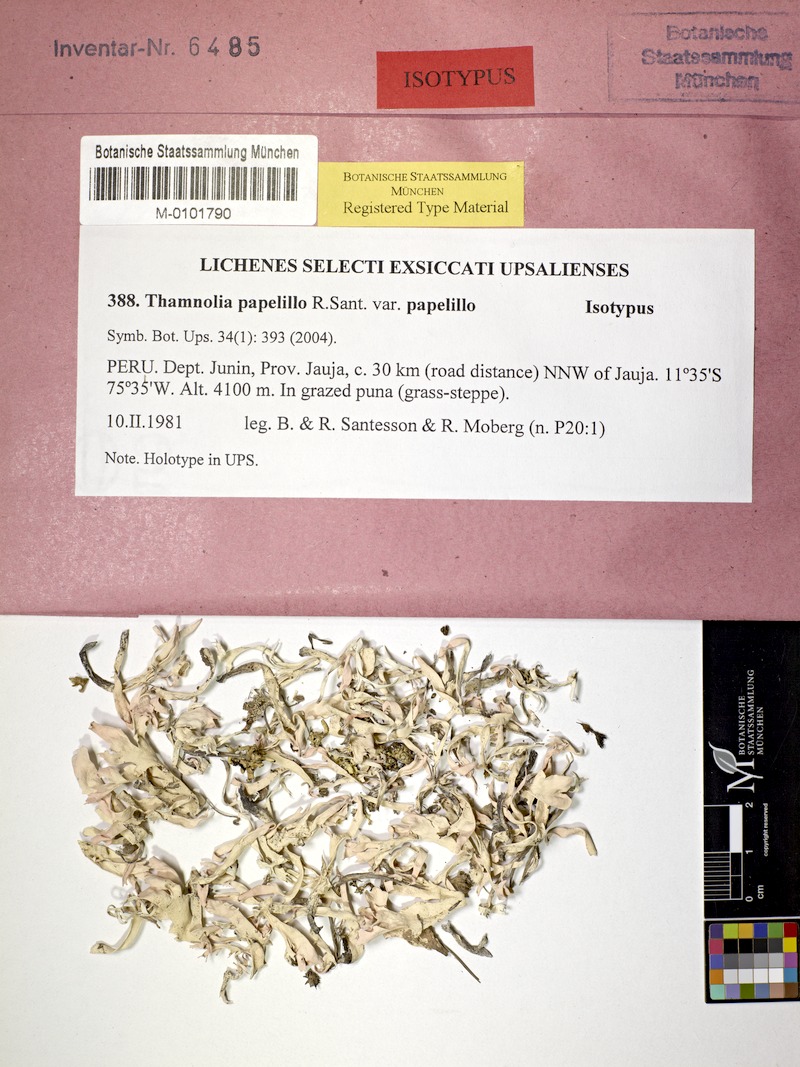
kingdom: Fungi
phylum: Ascomycota
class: Lecanoromycetes
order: Pertusariales
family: Icmadophilaceae
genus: Thamnolia
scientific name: Thamnolia papelillo
